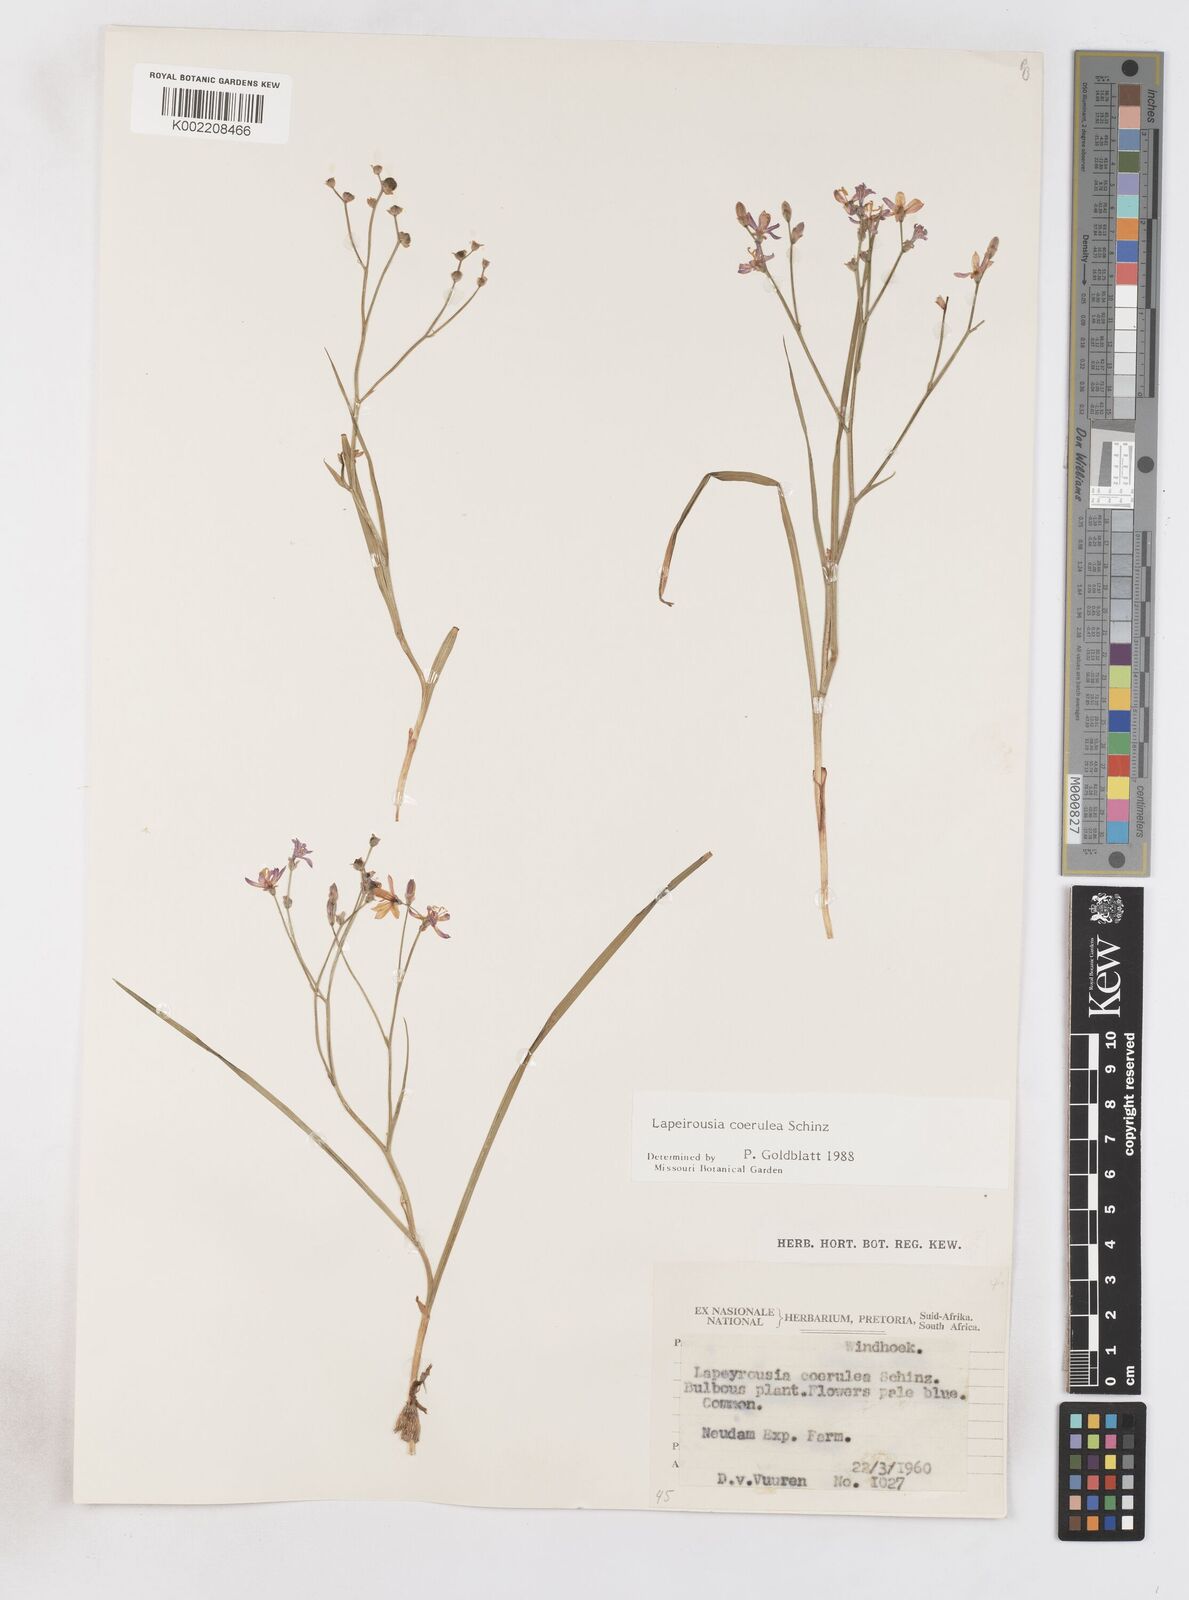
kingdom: Plantae
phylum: Tracheophyta
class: Liliopsida
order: Asparagales
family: Iridaceae
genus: Afrosolen
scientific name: Afrosolen coeruleus
